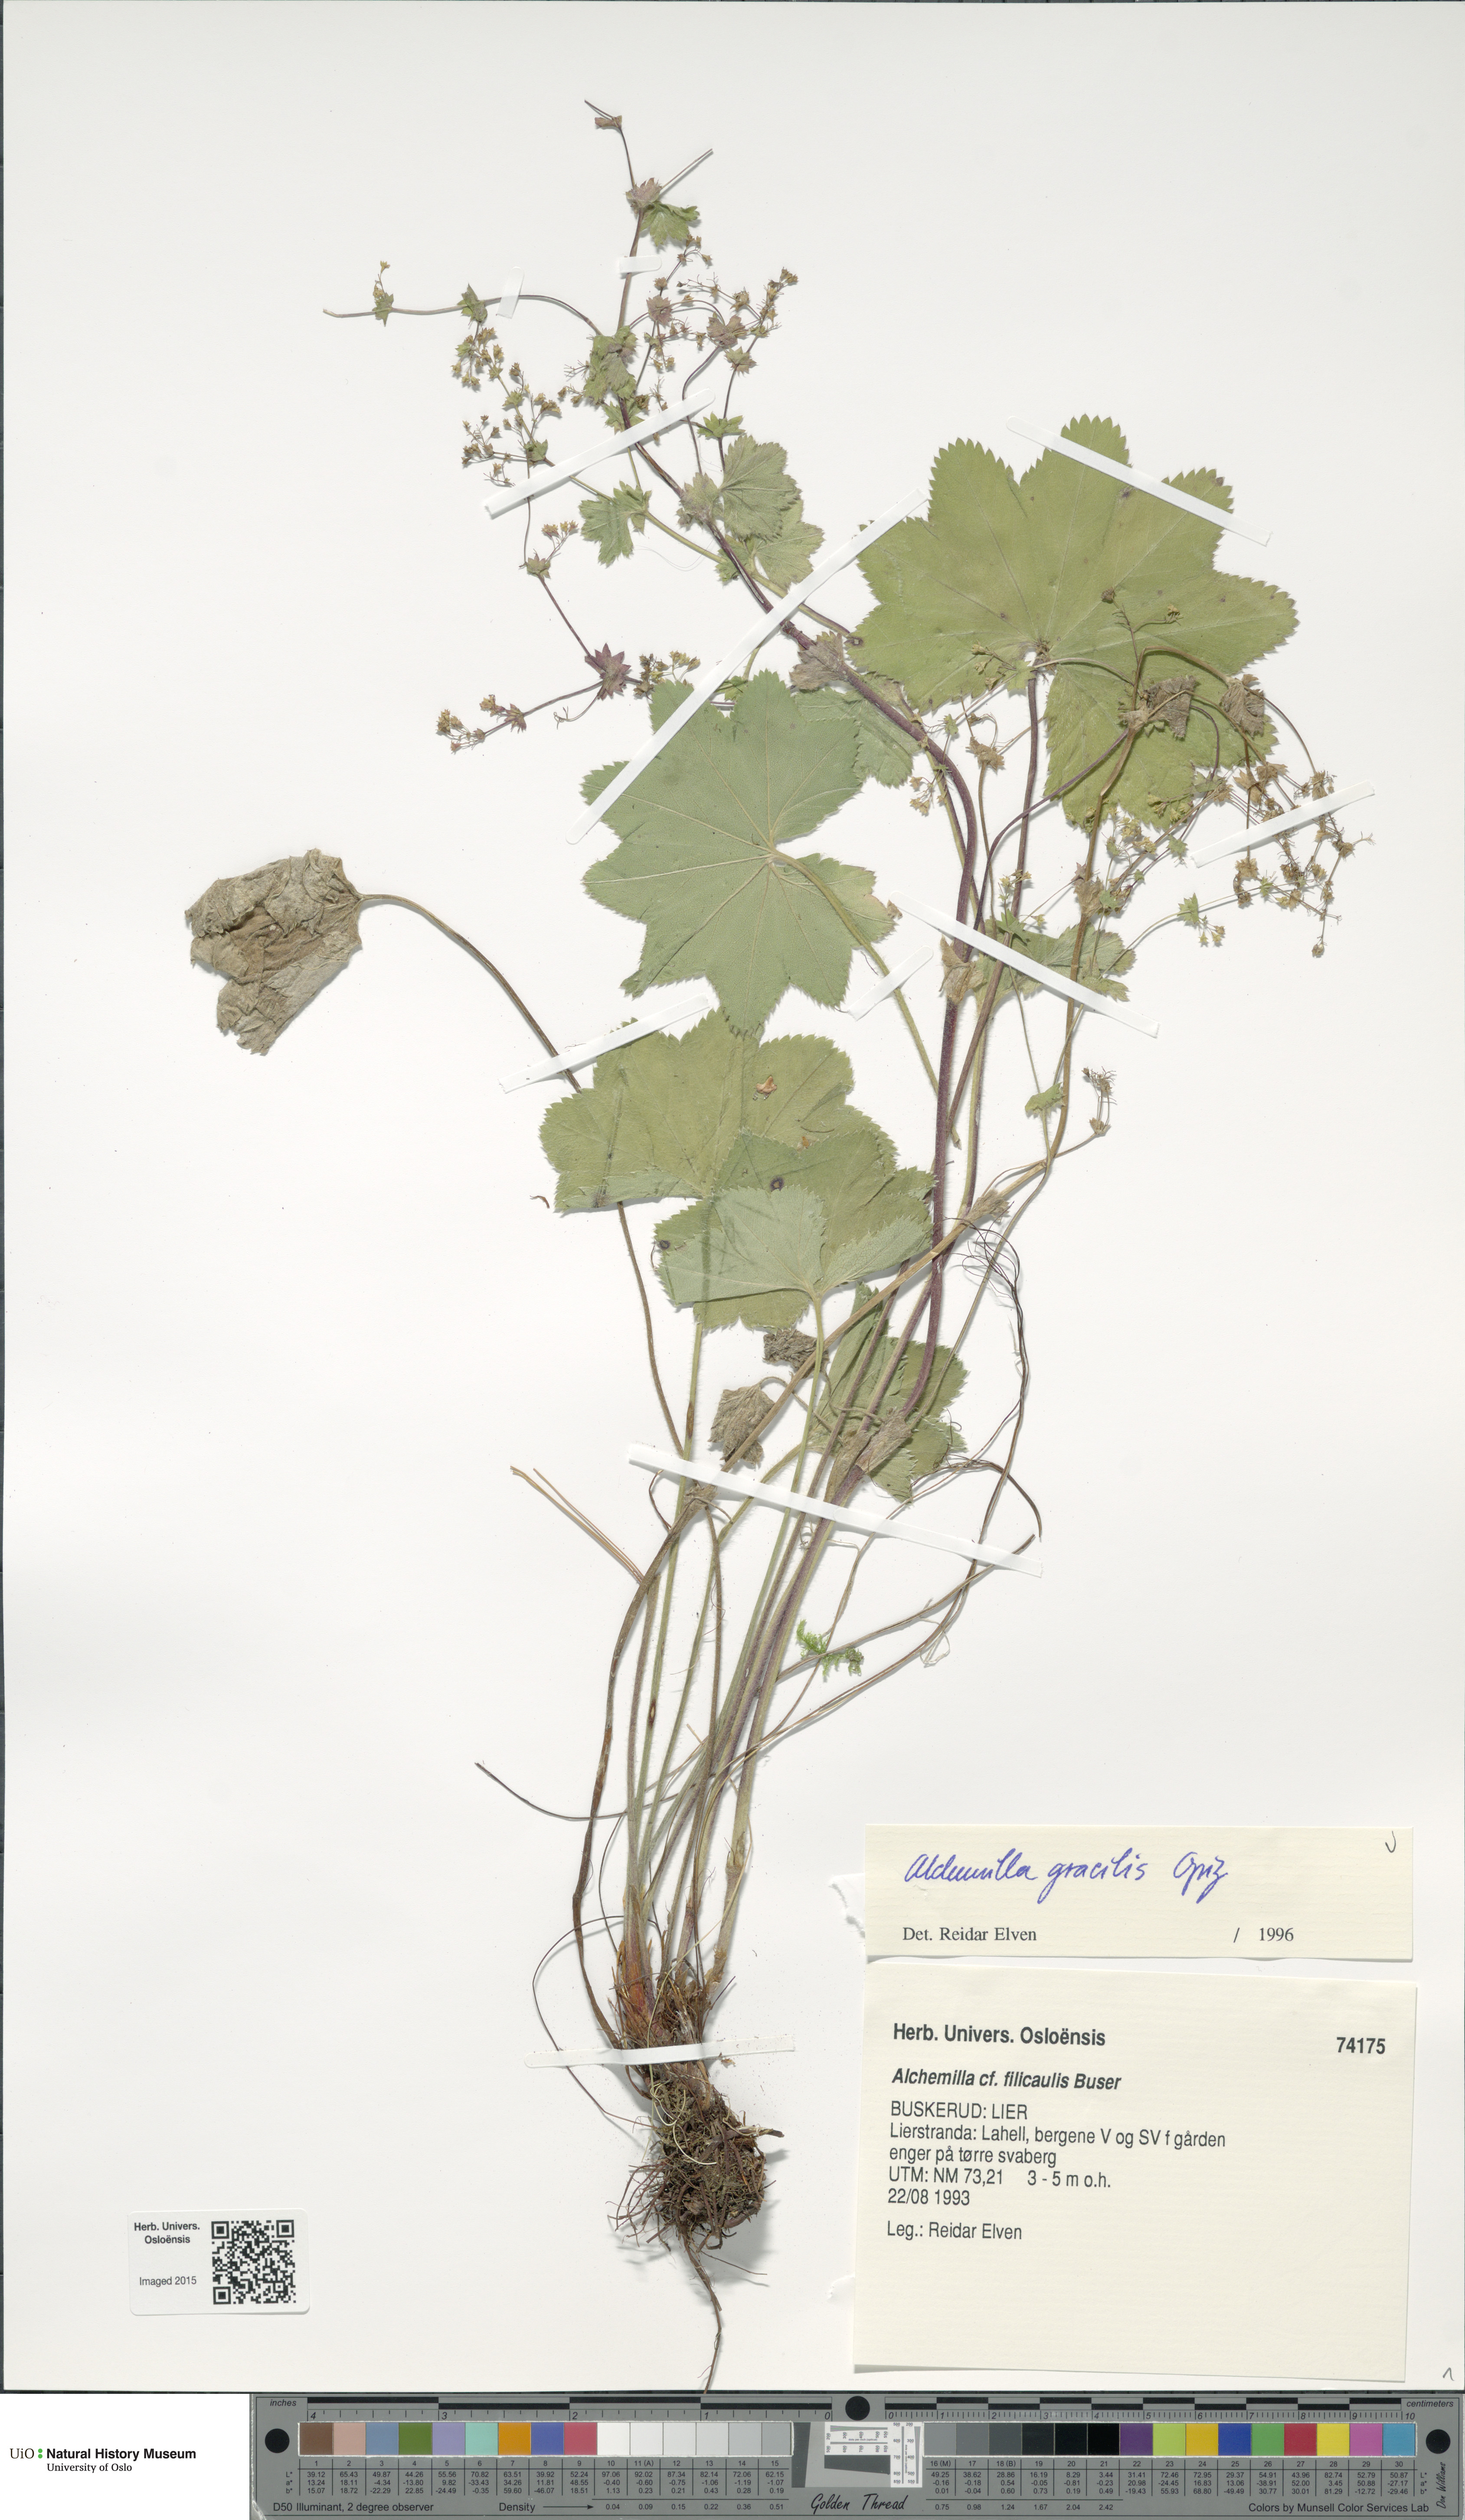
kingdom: Plantae
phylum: Tracheophyta
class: Magnoliopsida
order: Rosales
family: Rosaceae
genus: Alchemilla
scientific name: Alchemilla micans
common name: Gleaming lady's mantle
